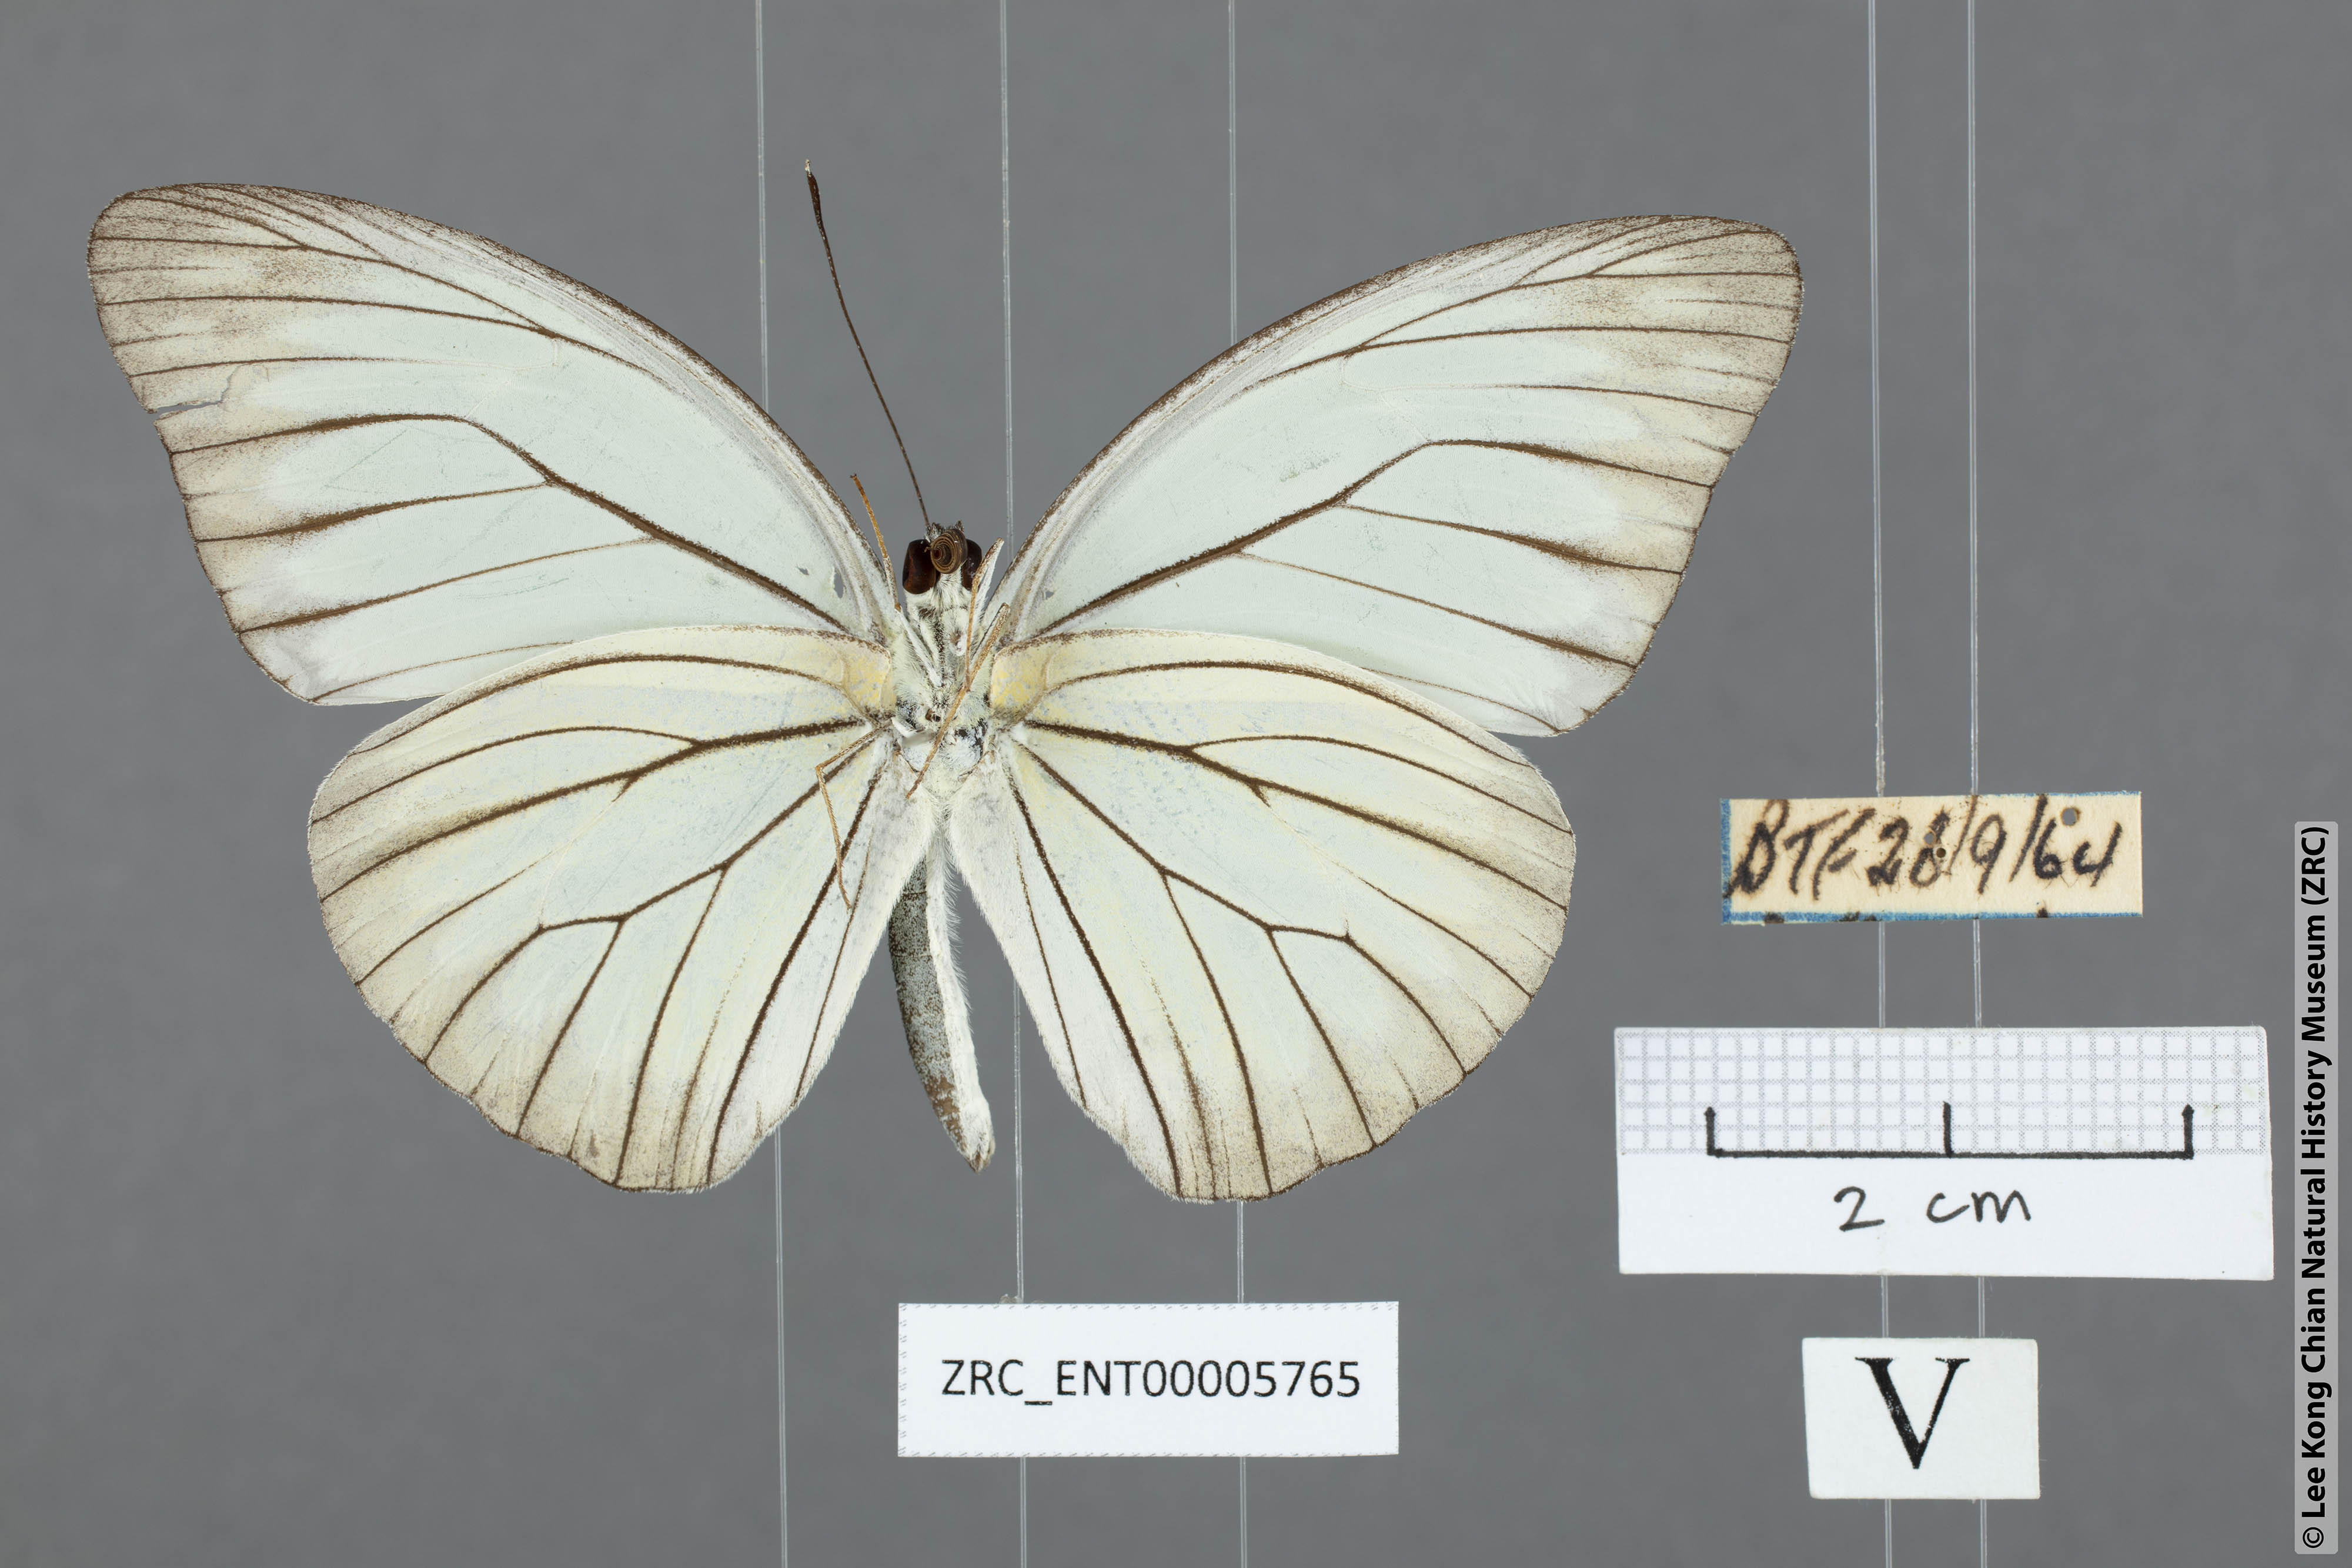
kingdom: Animalia
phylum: Arthropoda
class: Insecta
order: Lepidoptera
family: Pieridae
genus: Pareronia
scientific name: Pareronia valeria
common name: Common wanderer?
